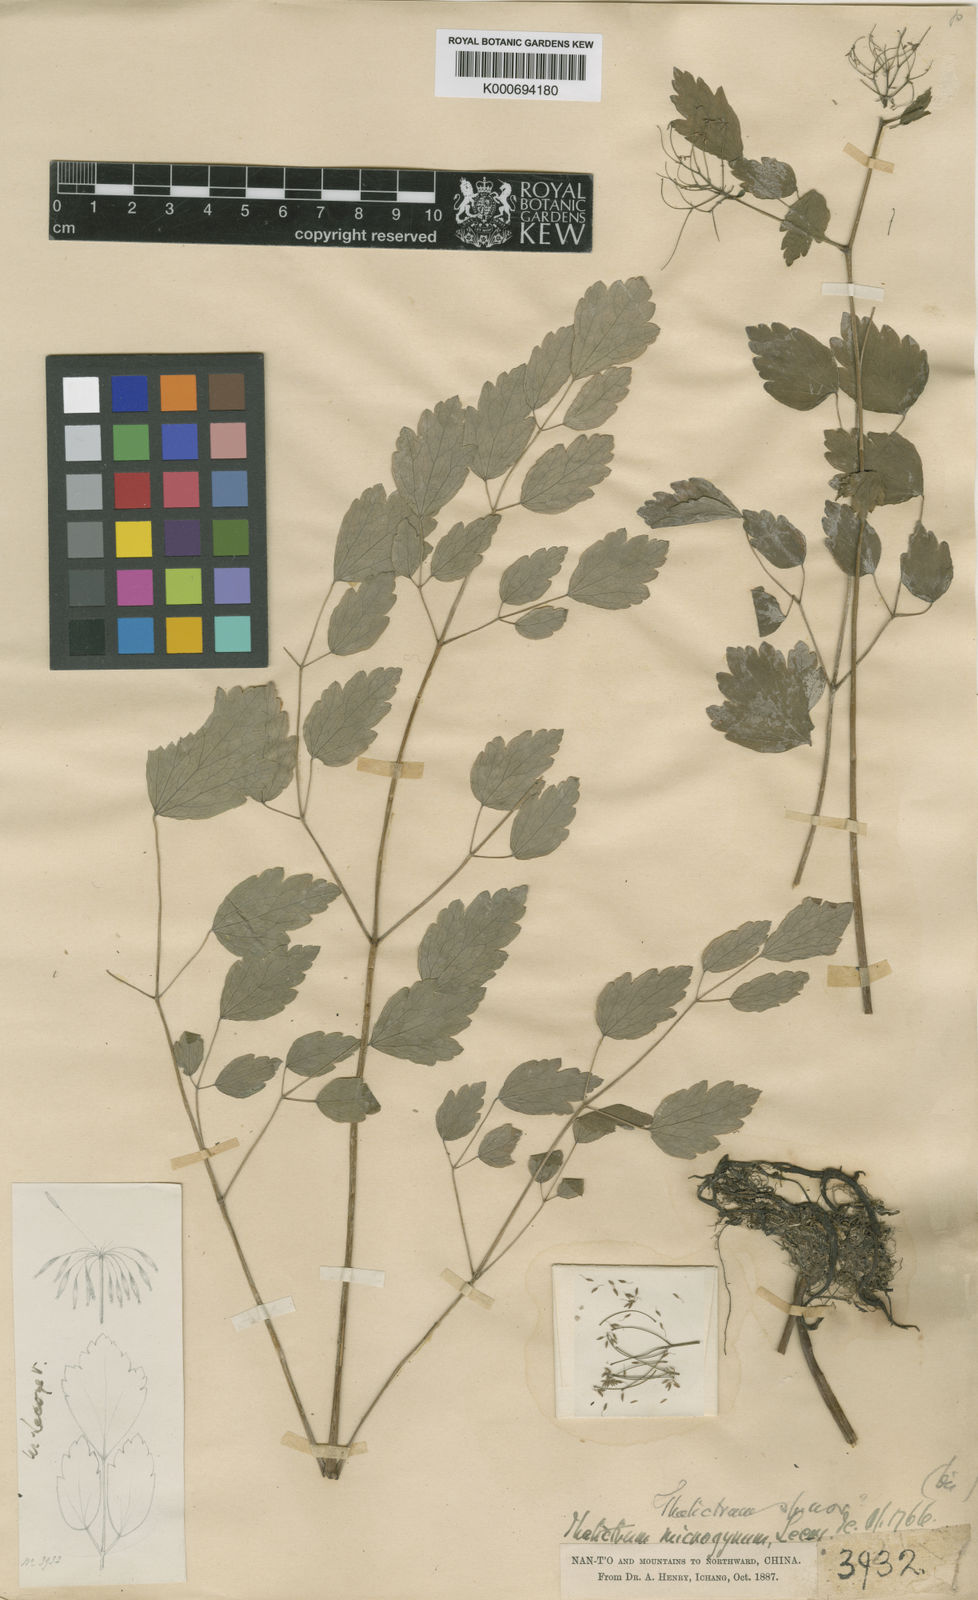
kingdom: Plantae
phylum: Tracheophyta
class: Magnoliopsida
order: Ranunculales
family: Ranunculaceae
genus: Thalictrum
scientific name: Thalictrum microgynum
